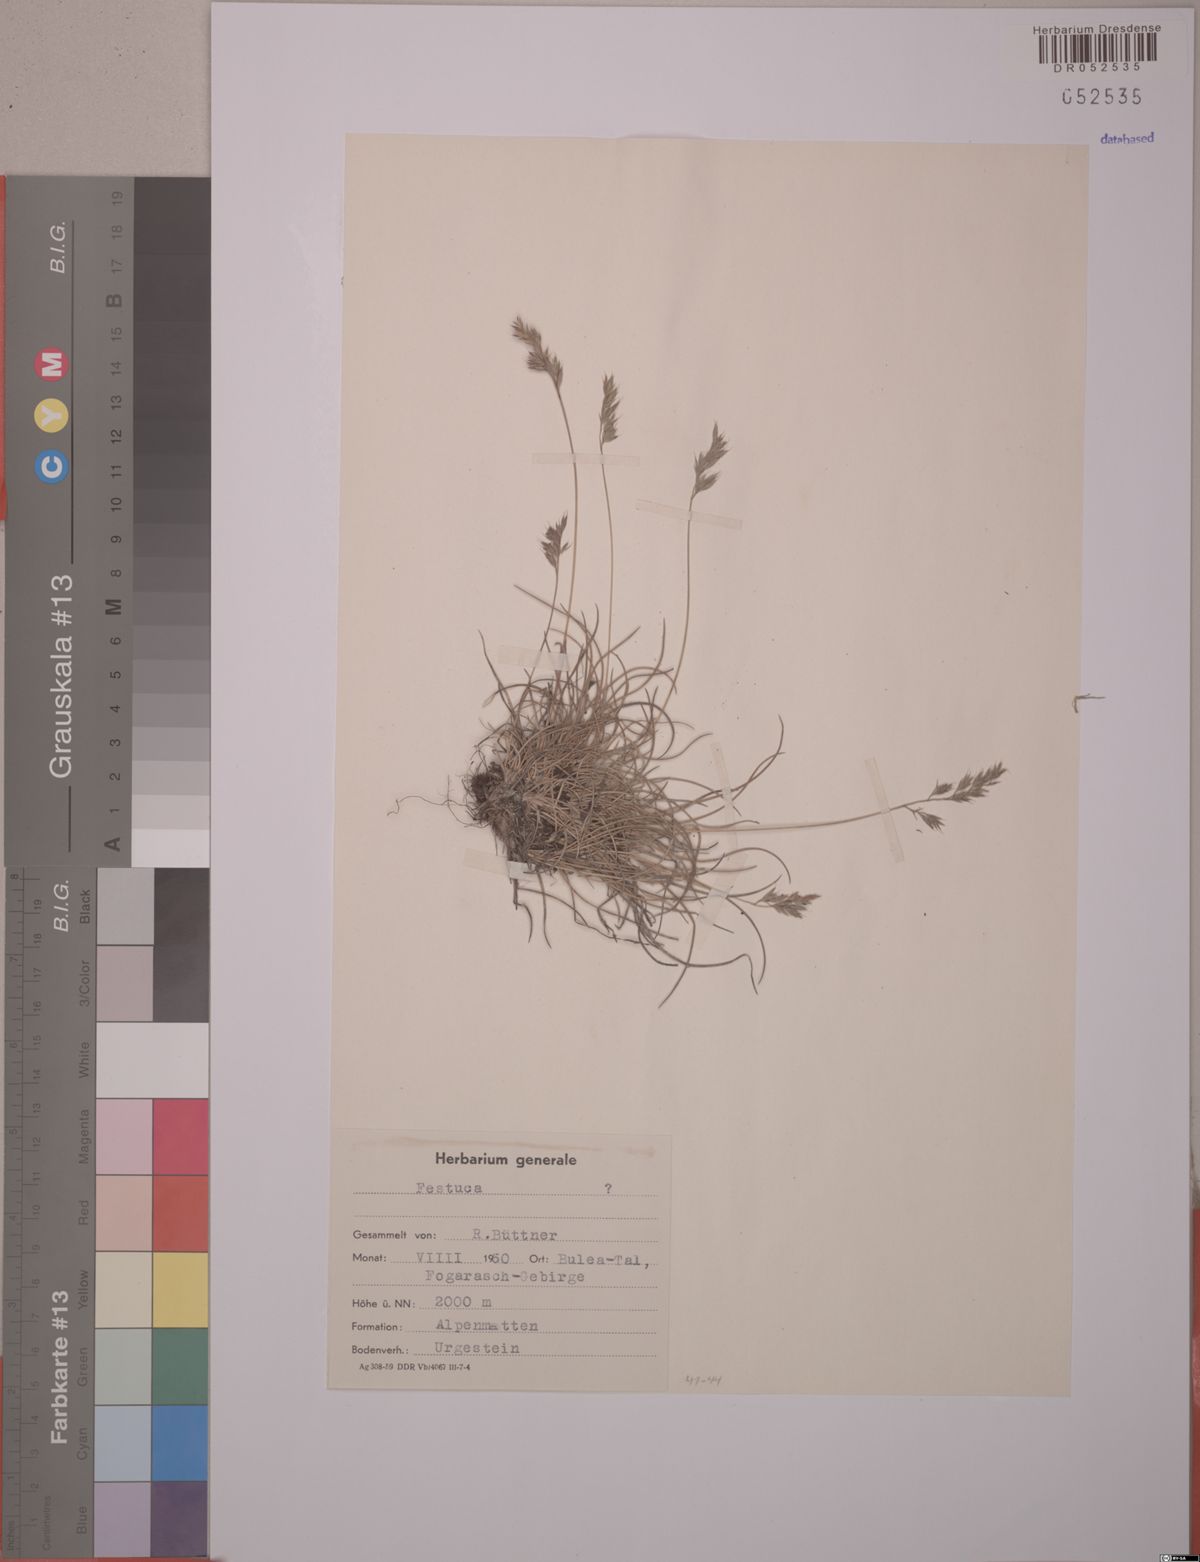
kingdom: Plantae
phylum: Tracheophyta
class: Liliopsida
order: Poales
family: Poaceae
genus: Festuca
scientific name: Festuca
